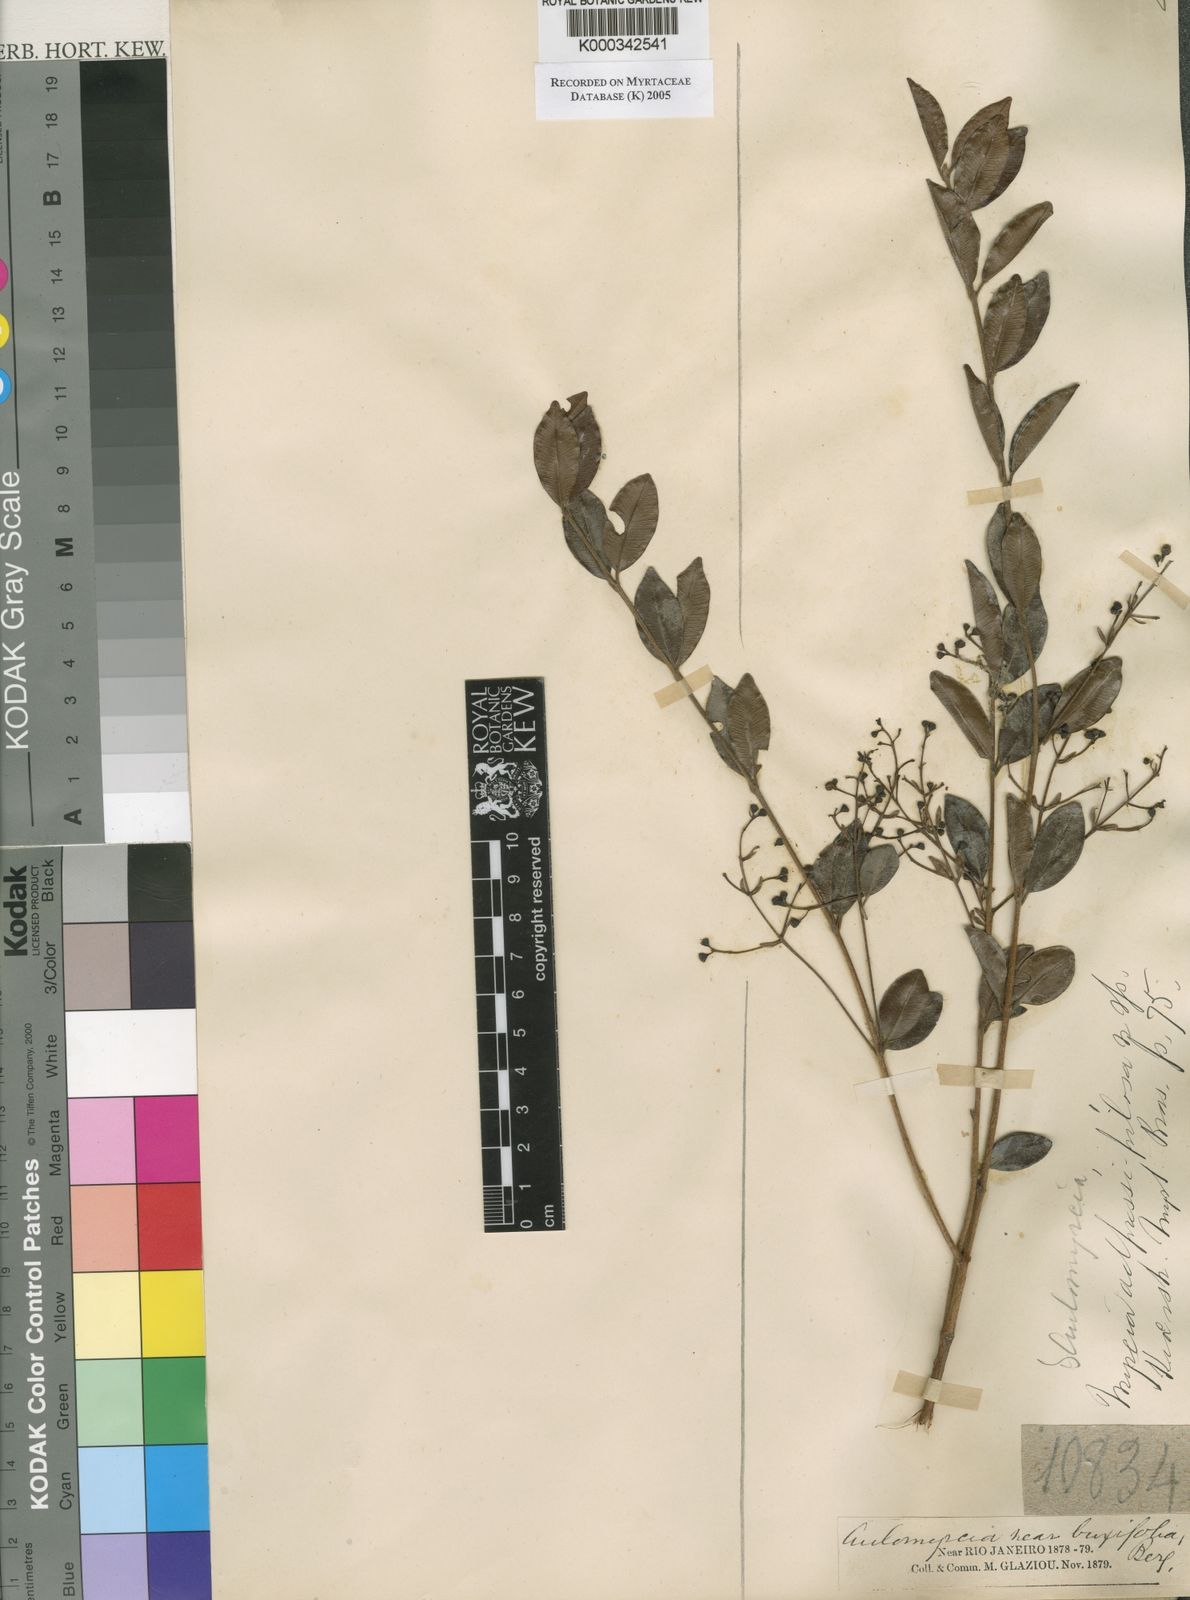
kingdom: Plantae
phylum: Tracheophyta
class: Magnoliopsida
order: Myrtales
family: Myrtaceae
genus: Myrcia
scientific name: Myrcia
